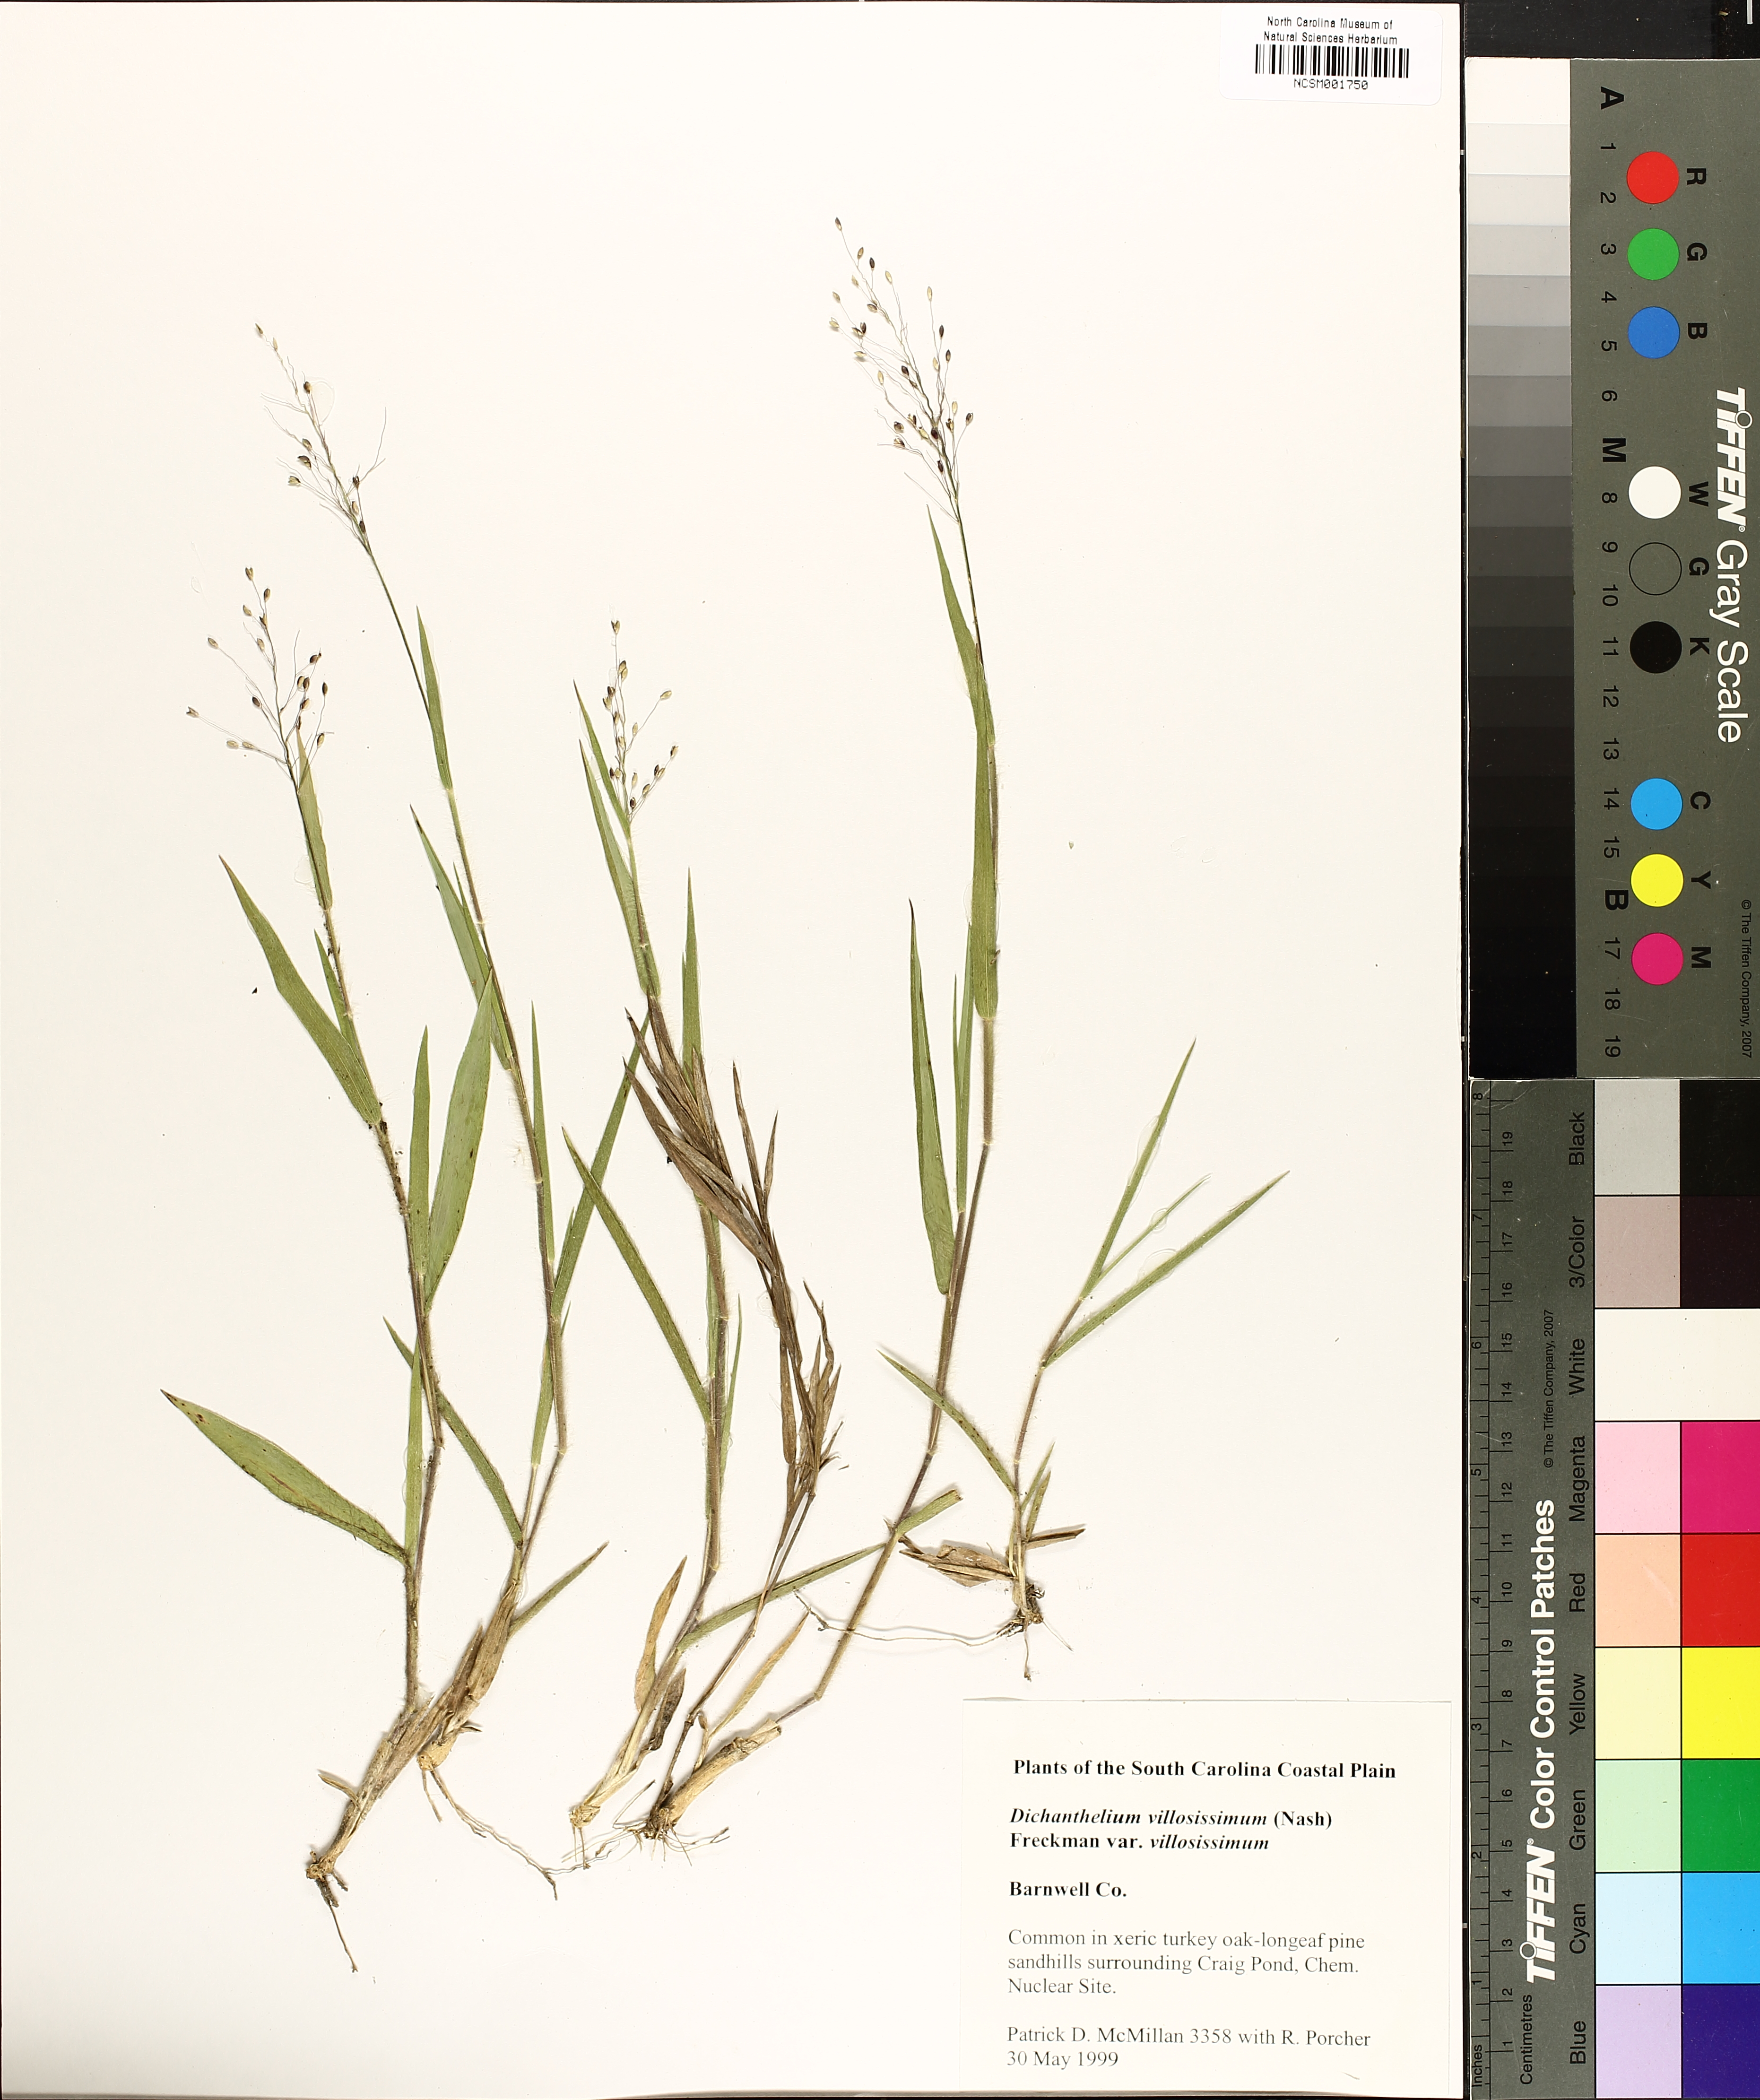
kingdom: Plantae
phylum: Tracheophyta
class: Liliopsida
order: Poales
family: Poaceae
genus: Dichanthelium
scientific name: Dichanthelium acuminatum
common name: Hairy panic grass
